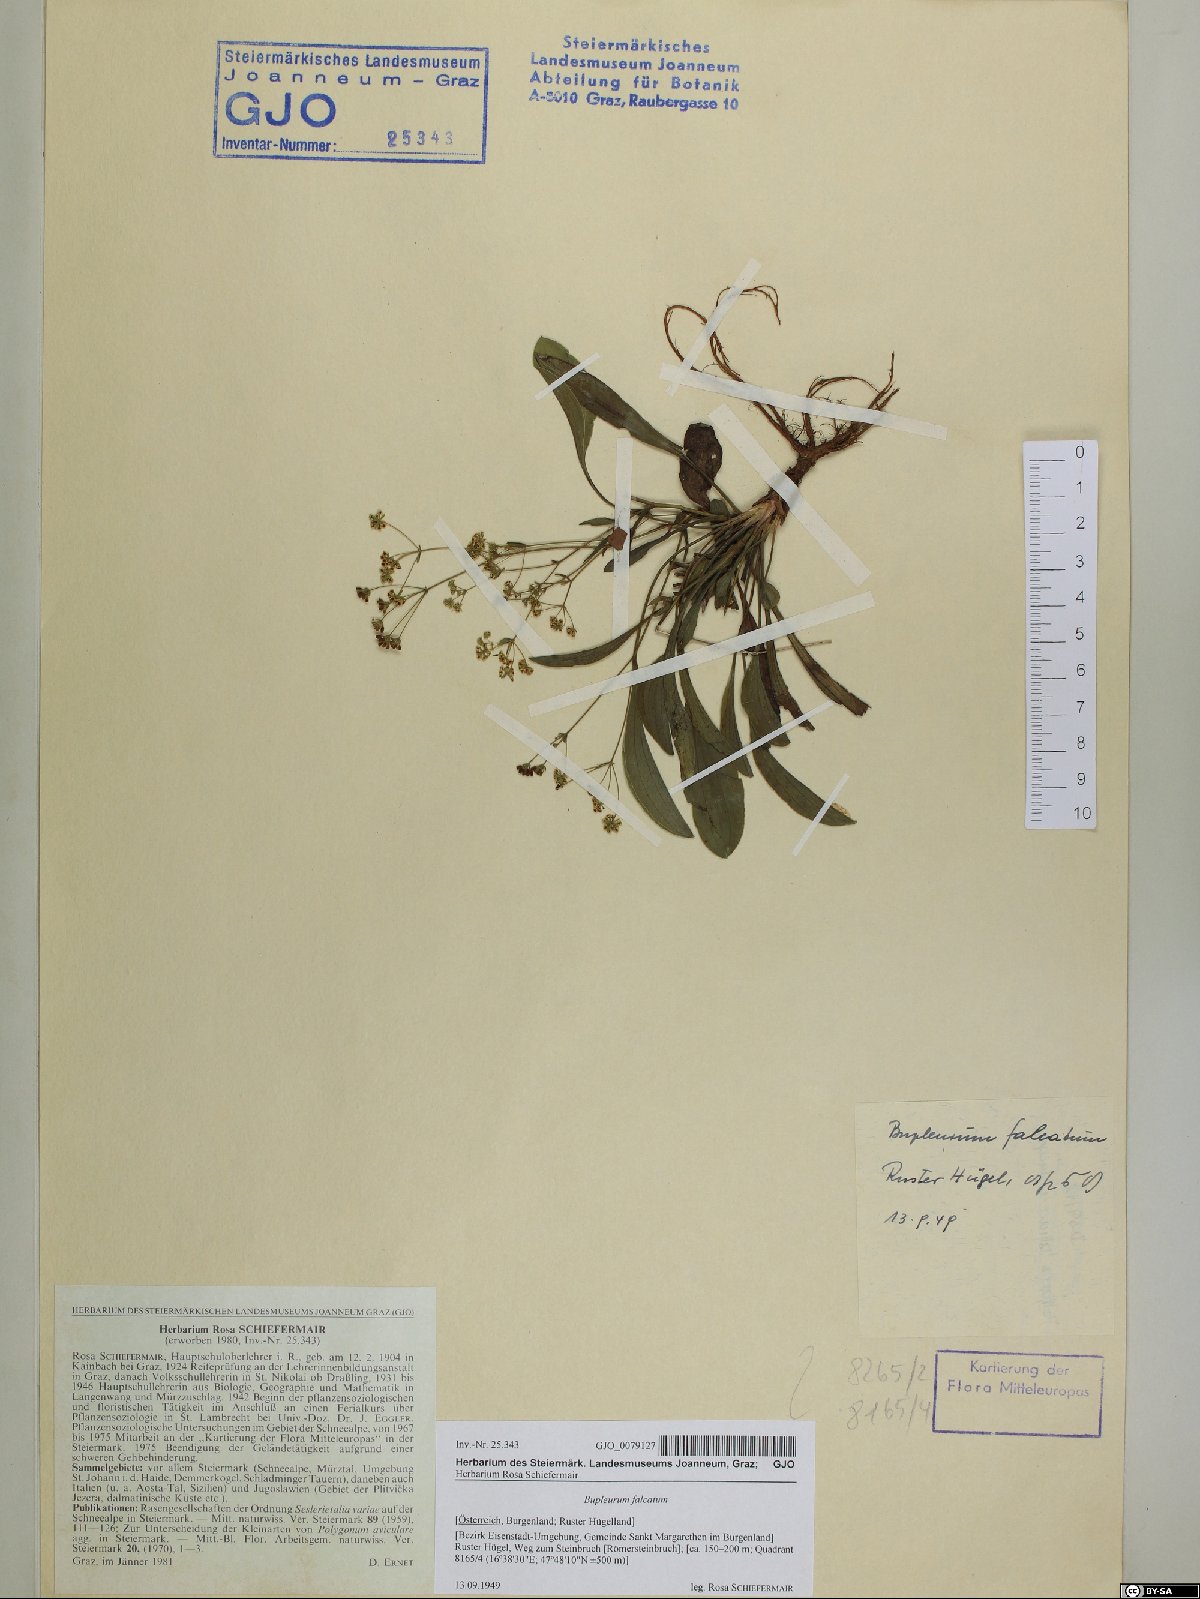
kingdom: Plantae
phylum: Tracheophyta
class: Magnoliopsida
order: Apiales
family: Apiaceae
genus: Bupleurum
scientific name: Bupleurum falcatum
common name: Sickle-leaved hare's-ear
